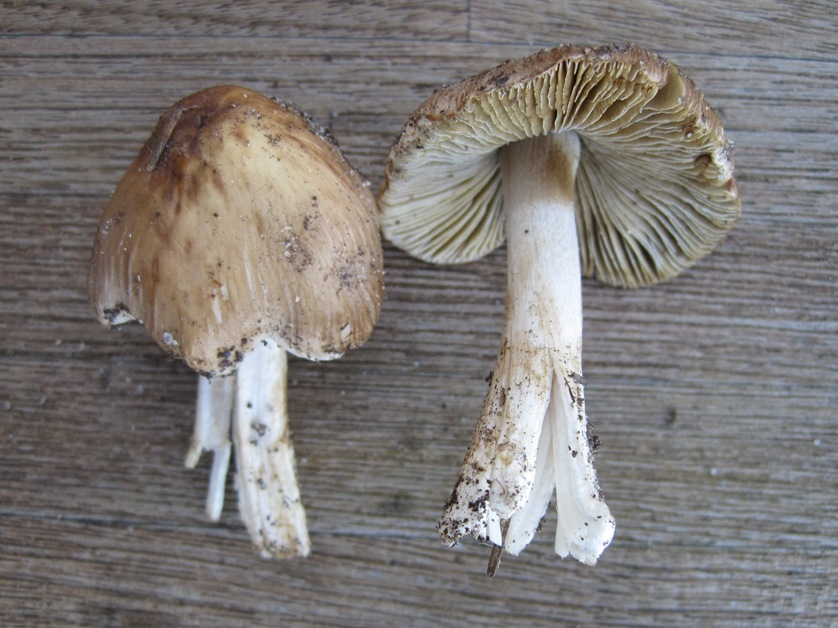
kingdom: Fungi
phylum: Basidiomycota
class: Agaricomycetes
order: Agaricales
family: Inocybaceae
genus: Pseudosperma
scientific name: Pseudosperma rimosum
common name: gulbladet trævlhat
